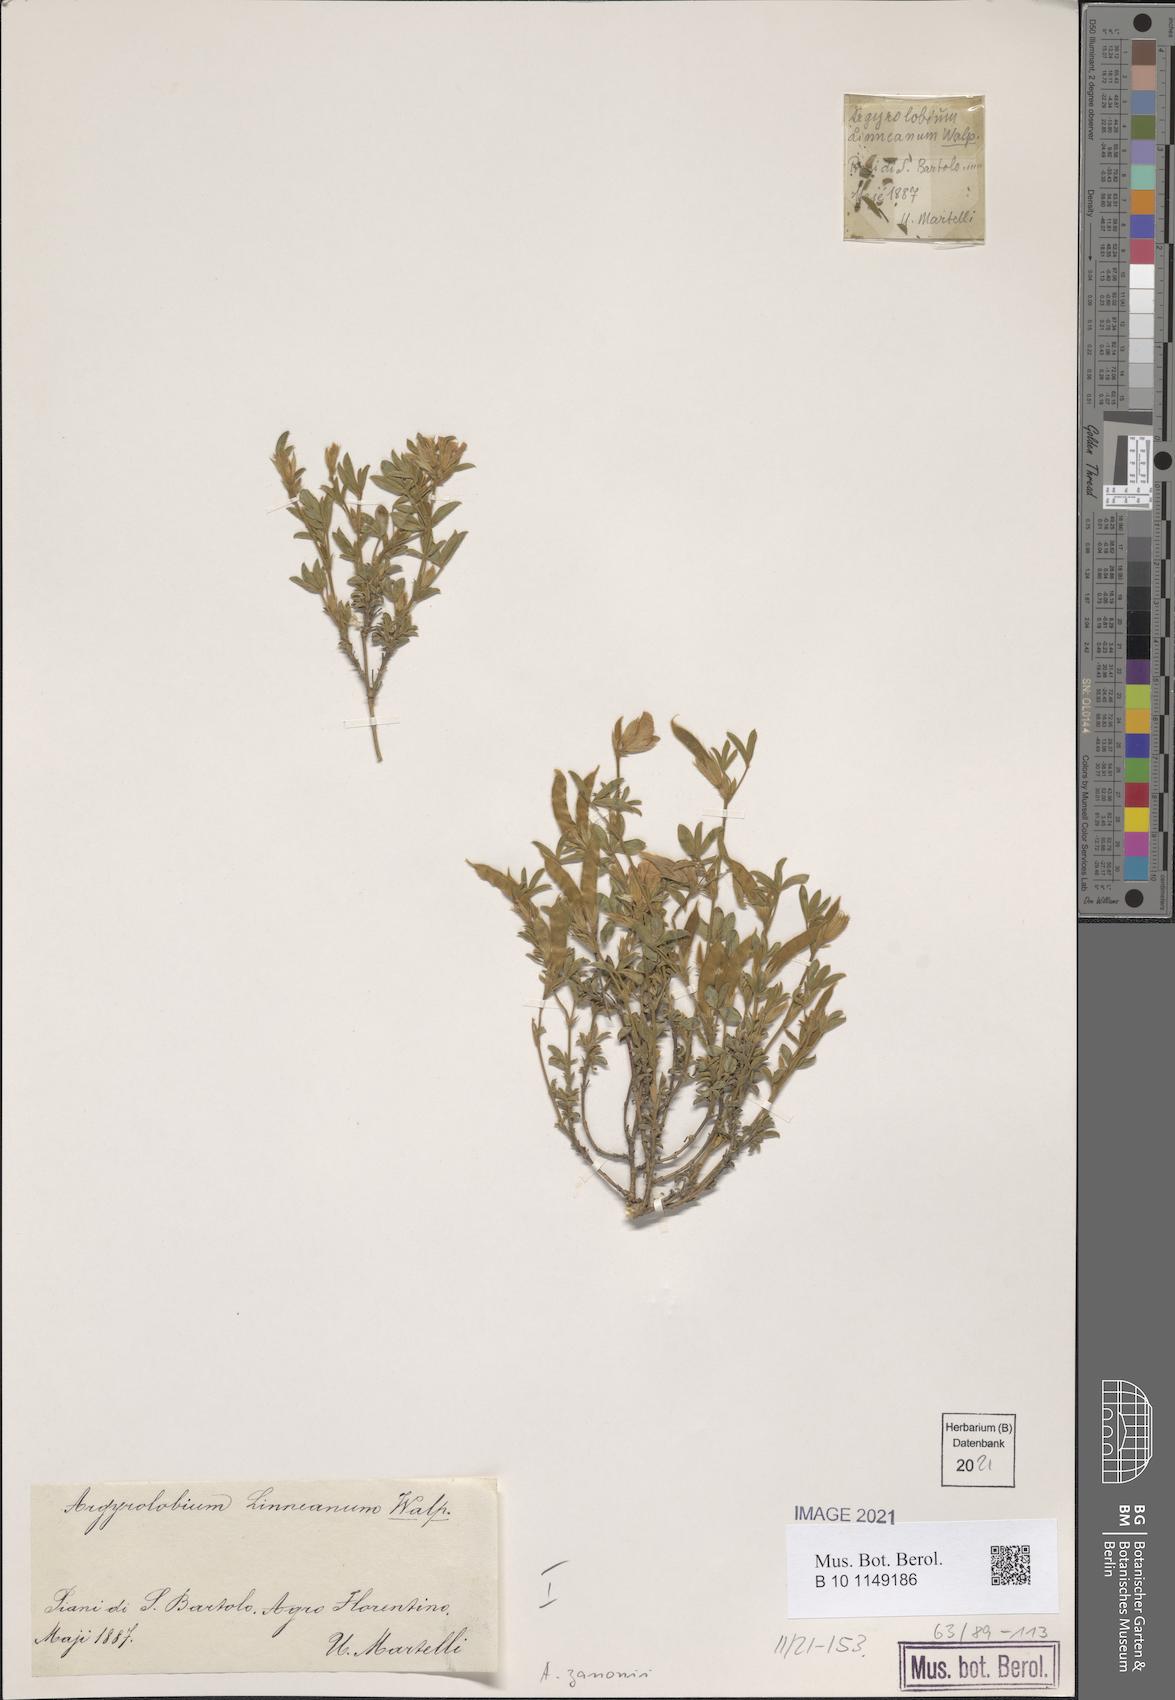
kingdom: Plantae
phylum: Tracheophyta
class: Magnoliopsida
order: Fabales
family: Fabaceae
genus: Argyrolobium
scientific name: Argyrolobium zanonii
